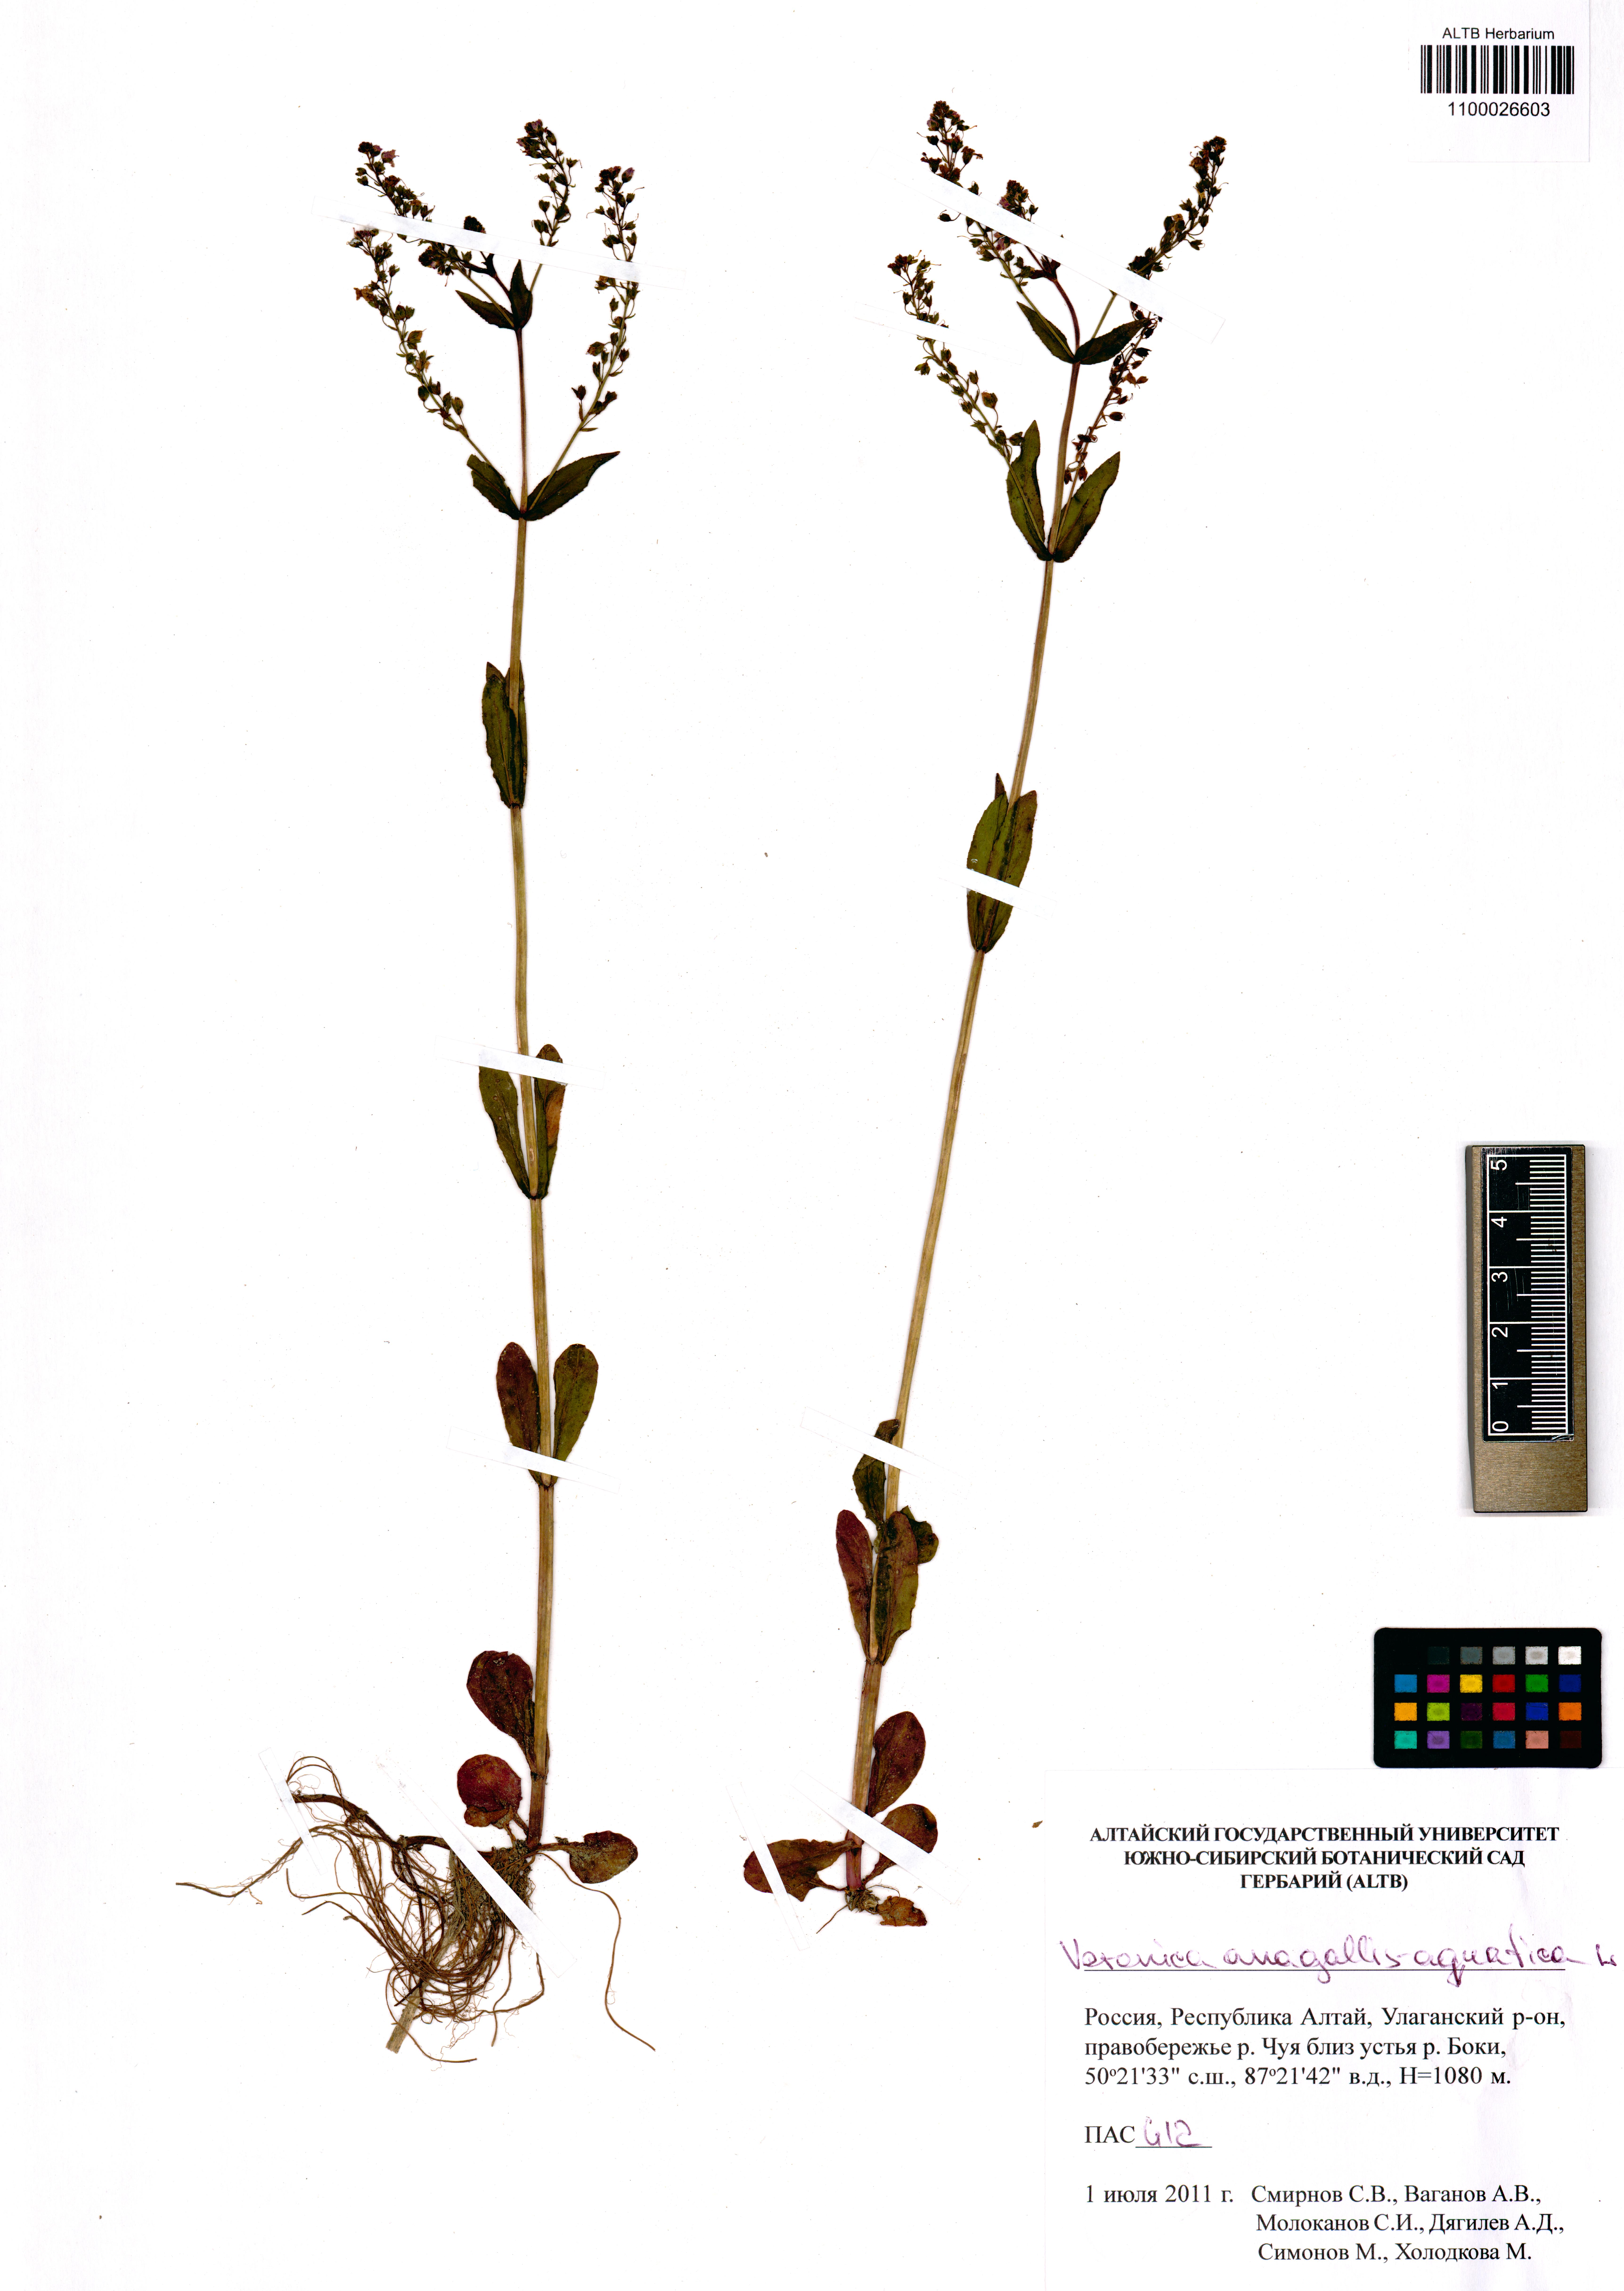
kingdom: Plantae
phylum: Tracheophyta
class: Magnoliopsida
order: Lamiales
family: Plantaginaceae
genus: Veronica
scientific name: Veronica anagallis-aquatica
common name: Water speedwell
